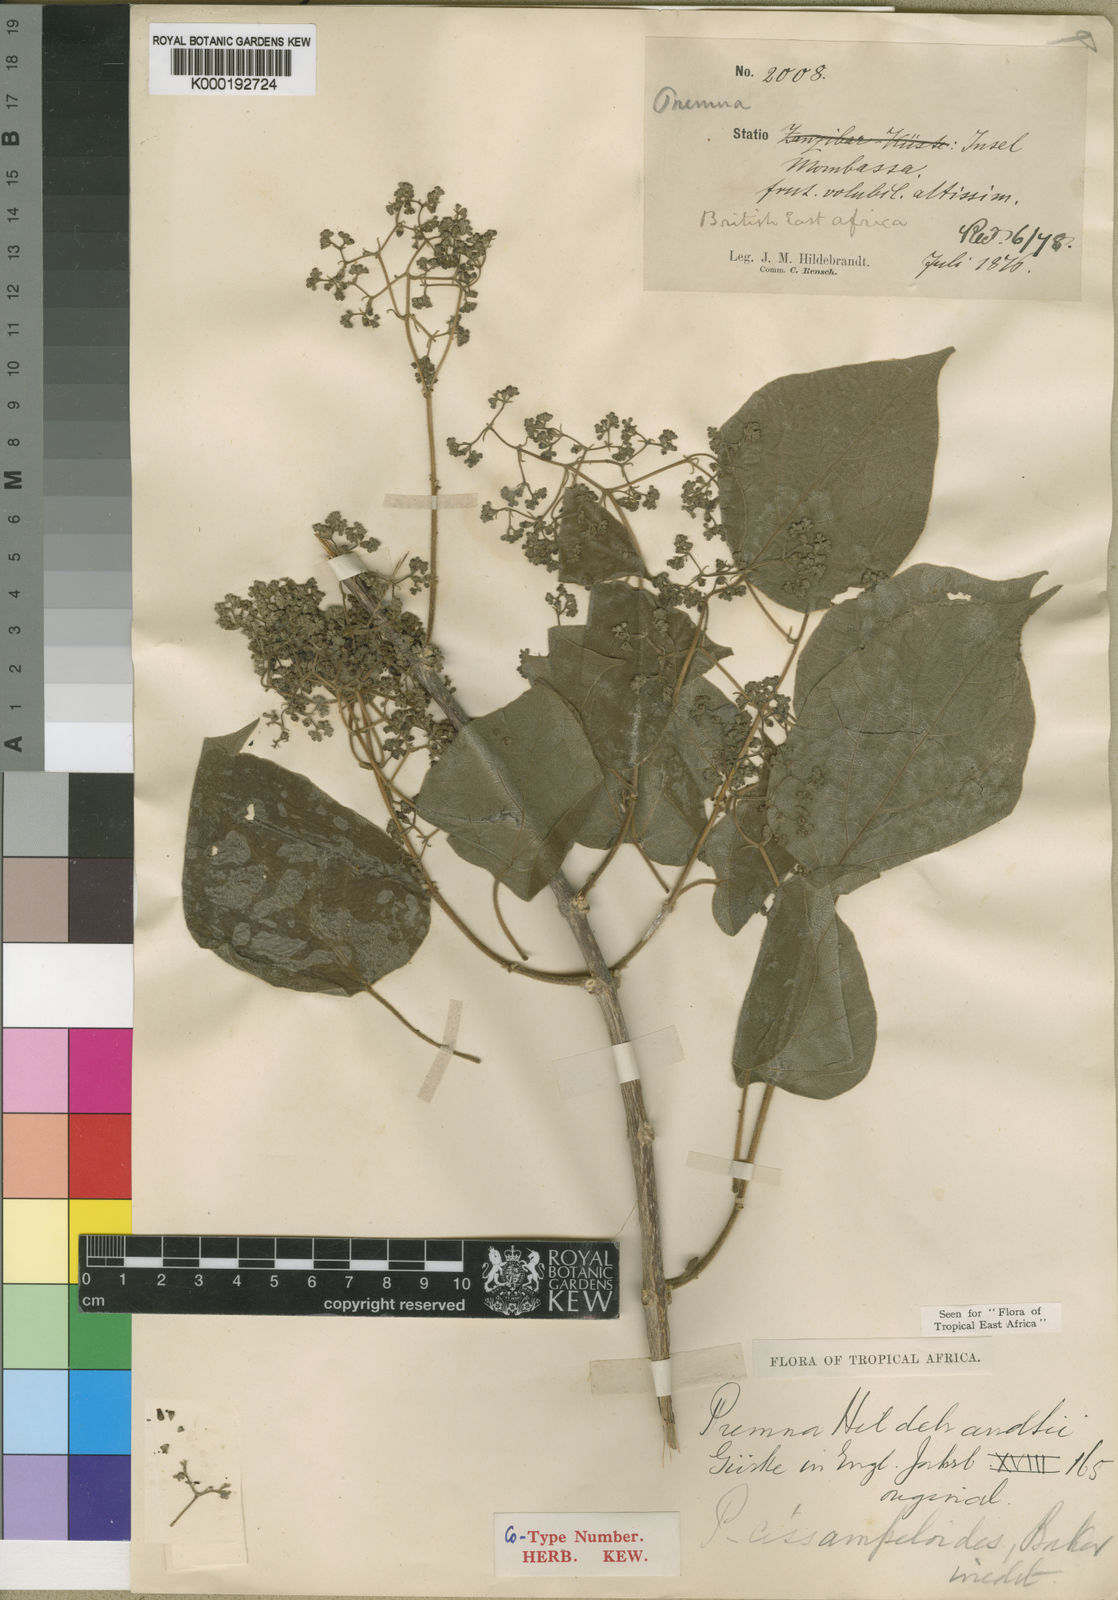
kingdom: Plantae
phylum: Tracheophyta
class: Magnoliopsida
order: Lamiales
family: Lamiaceae
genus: Premna
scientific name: Premna
